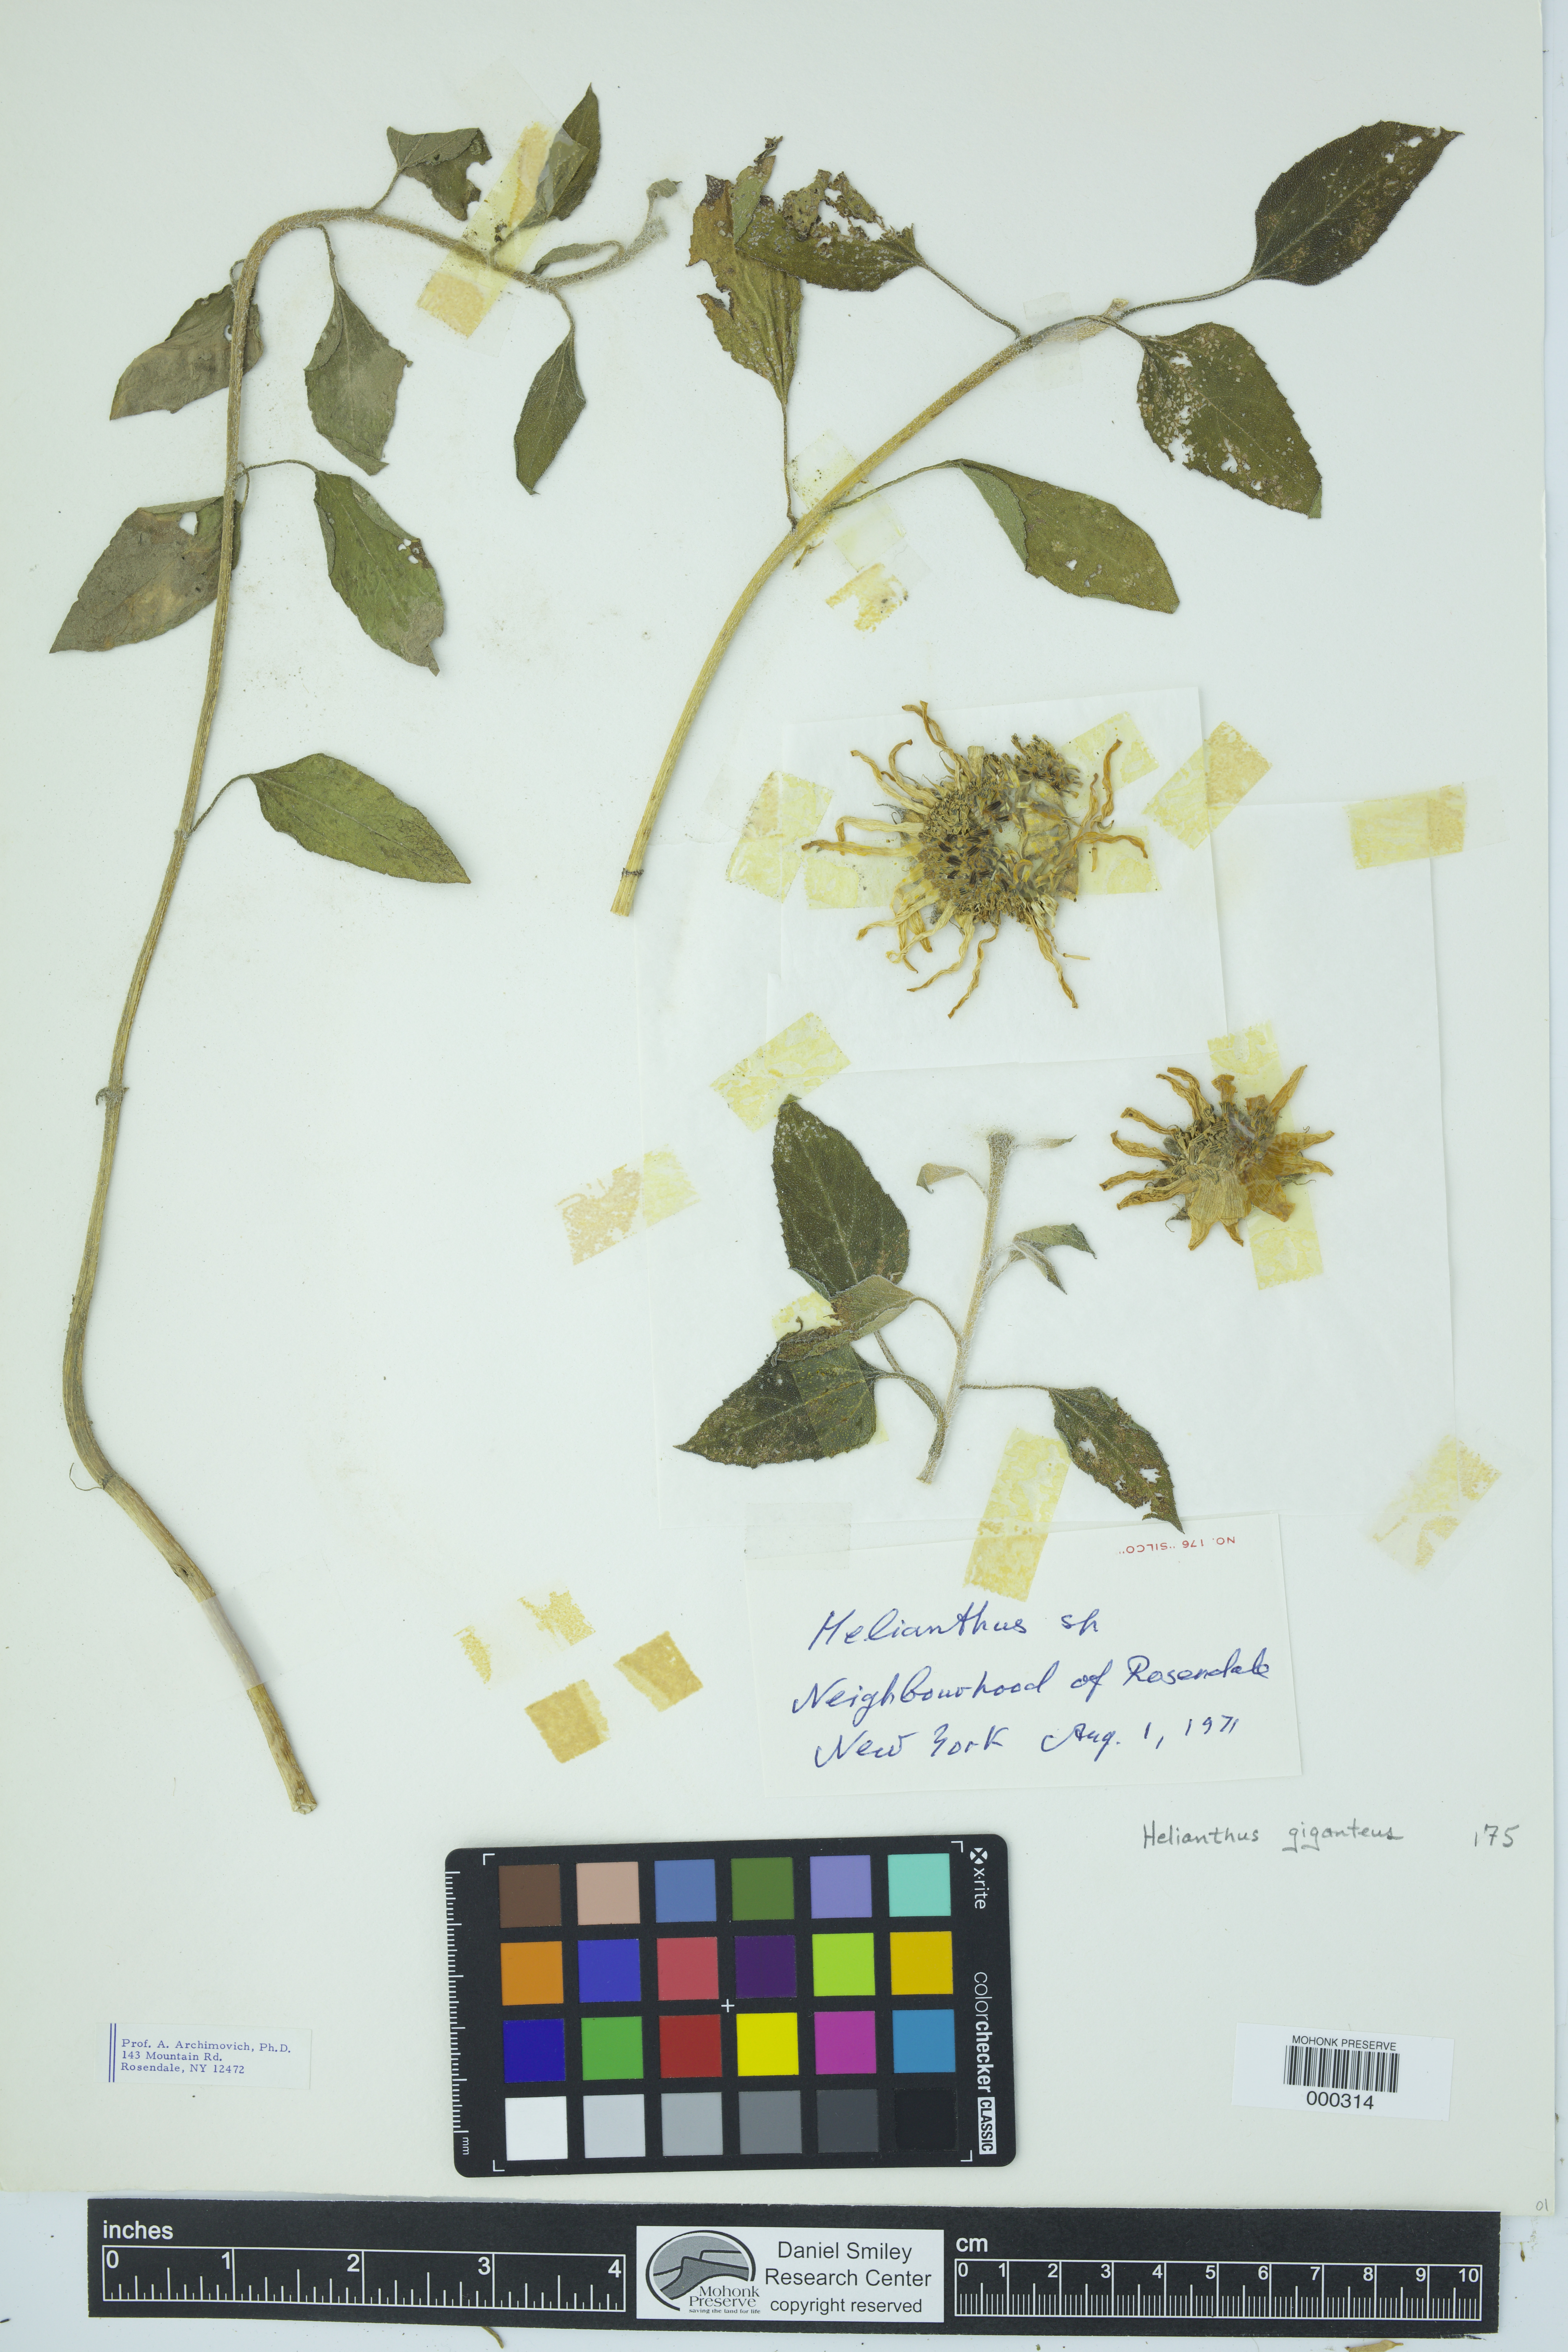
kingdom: Plantae
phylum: Tracheophyta
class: Magnoliopsida
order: Asterales
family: Asteraceae
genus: Helianthus
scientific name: Helianthus giganteus
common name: Giant sunflower
